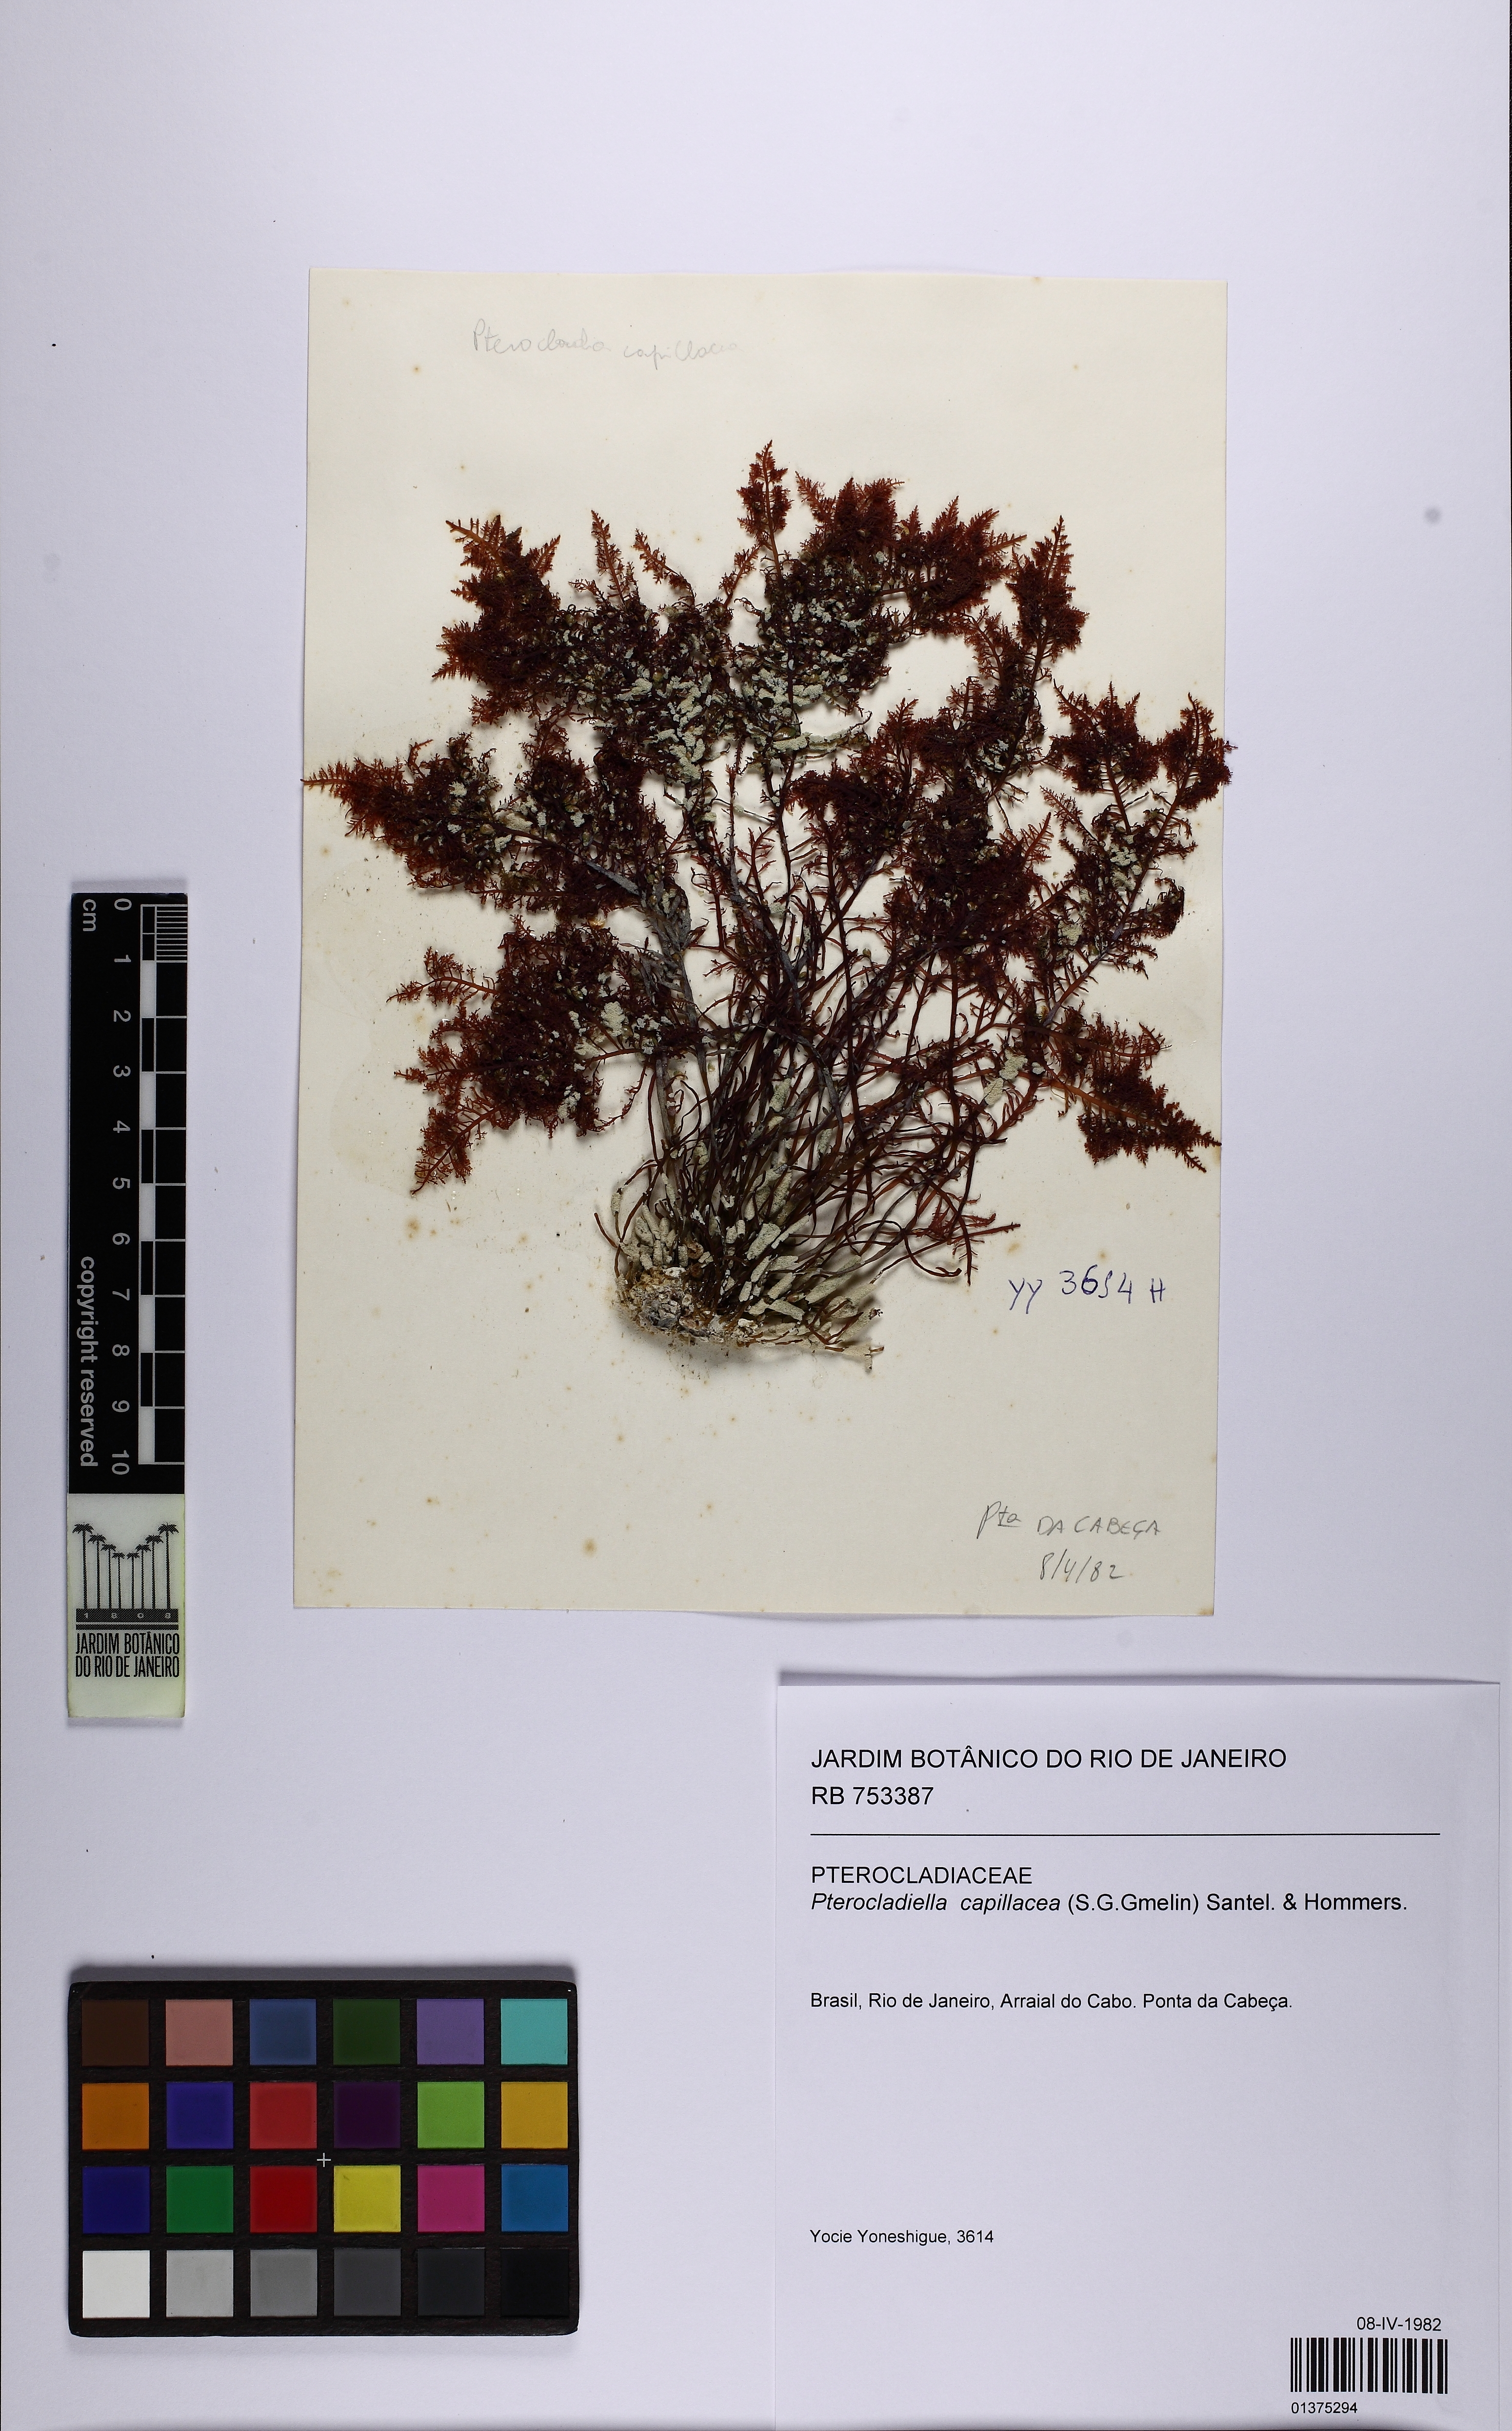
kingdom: Plantae
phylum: Rhodophyta
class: Florideophyceae
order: Gelidiales
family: Pterocladiaceae
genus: Pterocladiella
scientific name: Pterocladiella capillacea
